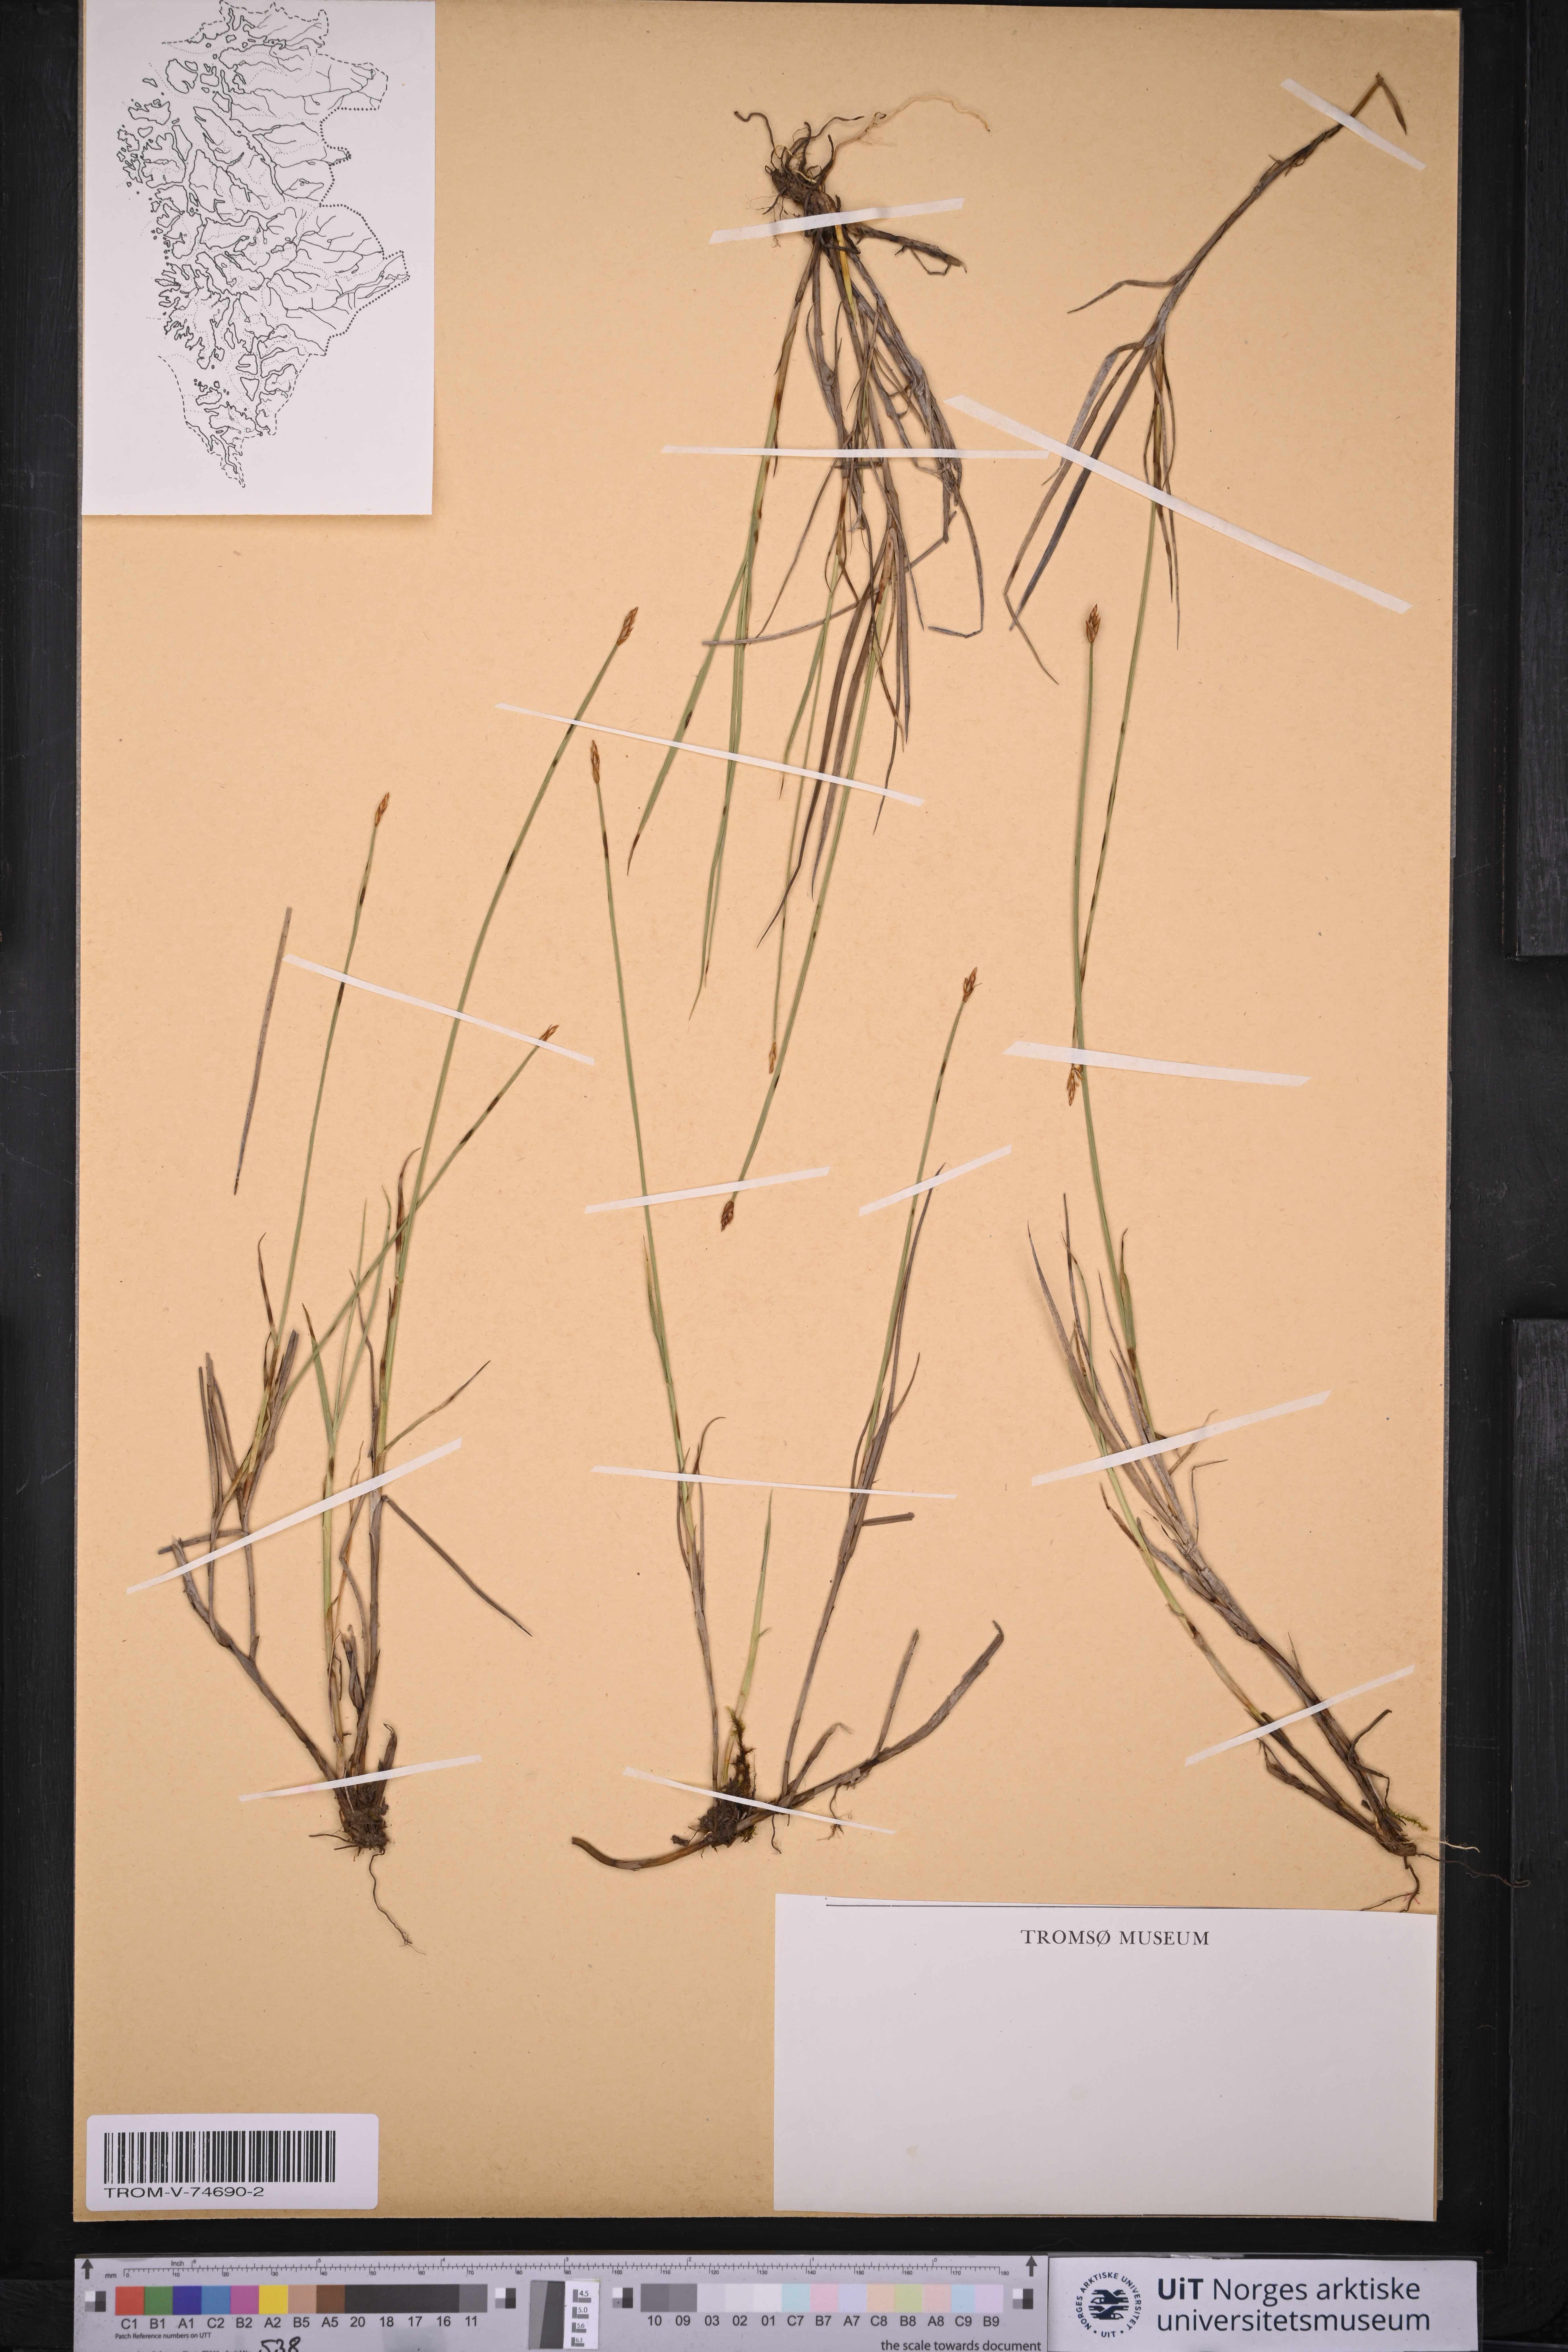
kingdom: Plantae
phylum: Tracheophyta
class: Liliopsida
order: Poales
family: Cyperaceae
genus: Carex
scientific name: Carex chordorrhiza
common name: String sedge
